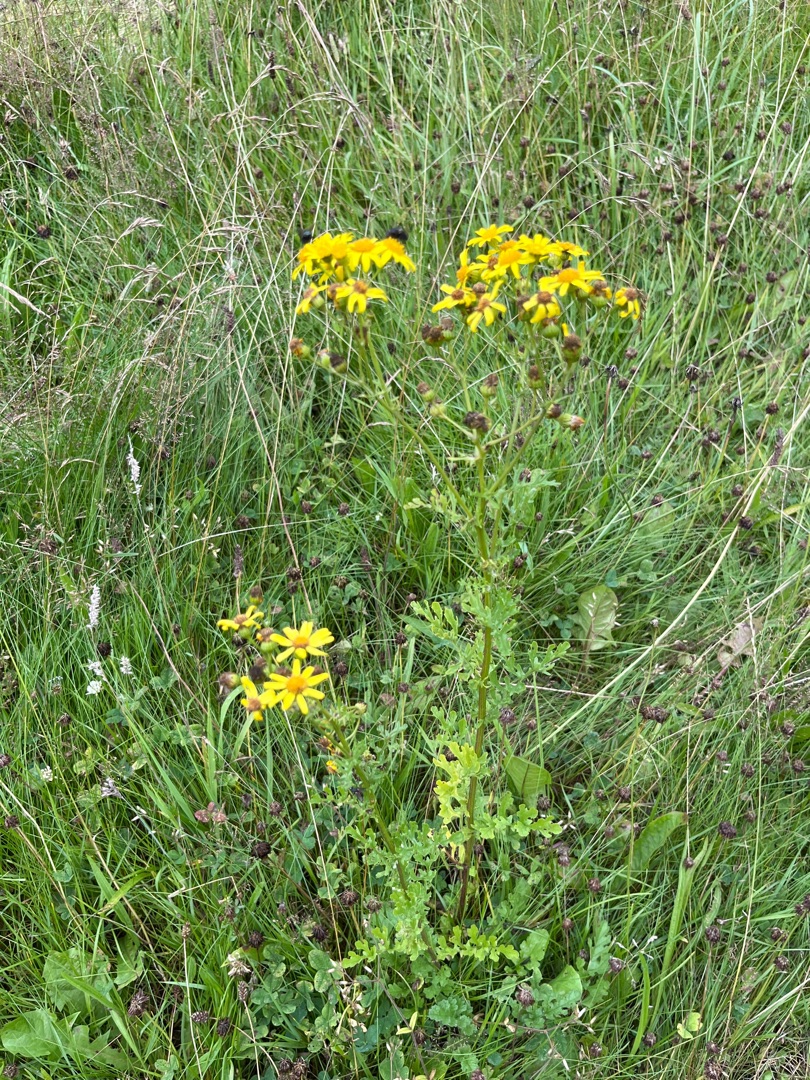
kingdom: Plantae
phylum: Tracheophyta
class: Magnoliopsida
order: Asterales
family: Asteraceae
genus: Jacobaea
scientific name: Jacobaea vulgaris
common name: Eng-brandbæger
